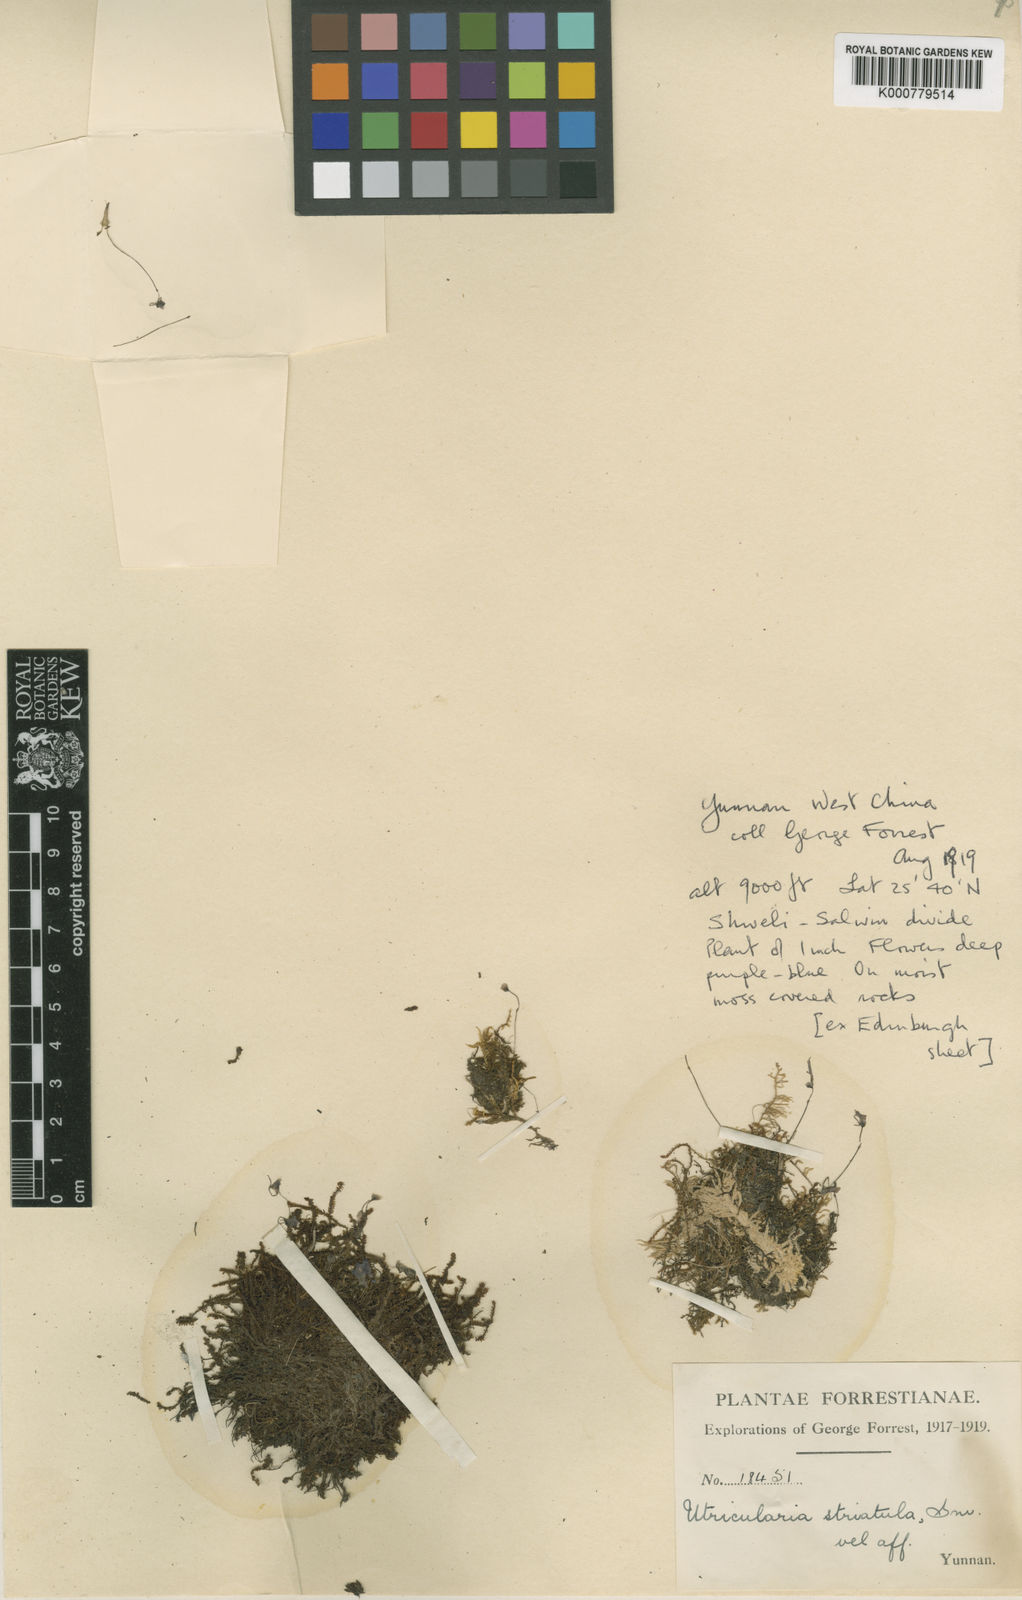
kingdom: Plantae
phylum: Tracheophyta
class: Magnoliopsida
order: Lamiales
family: Lentibulariaceae
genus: Utricularia
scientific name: Utricularia forrestii
